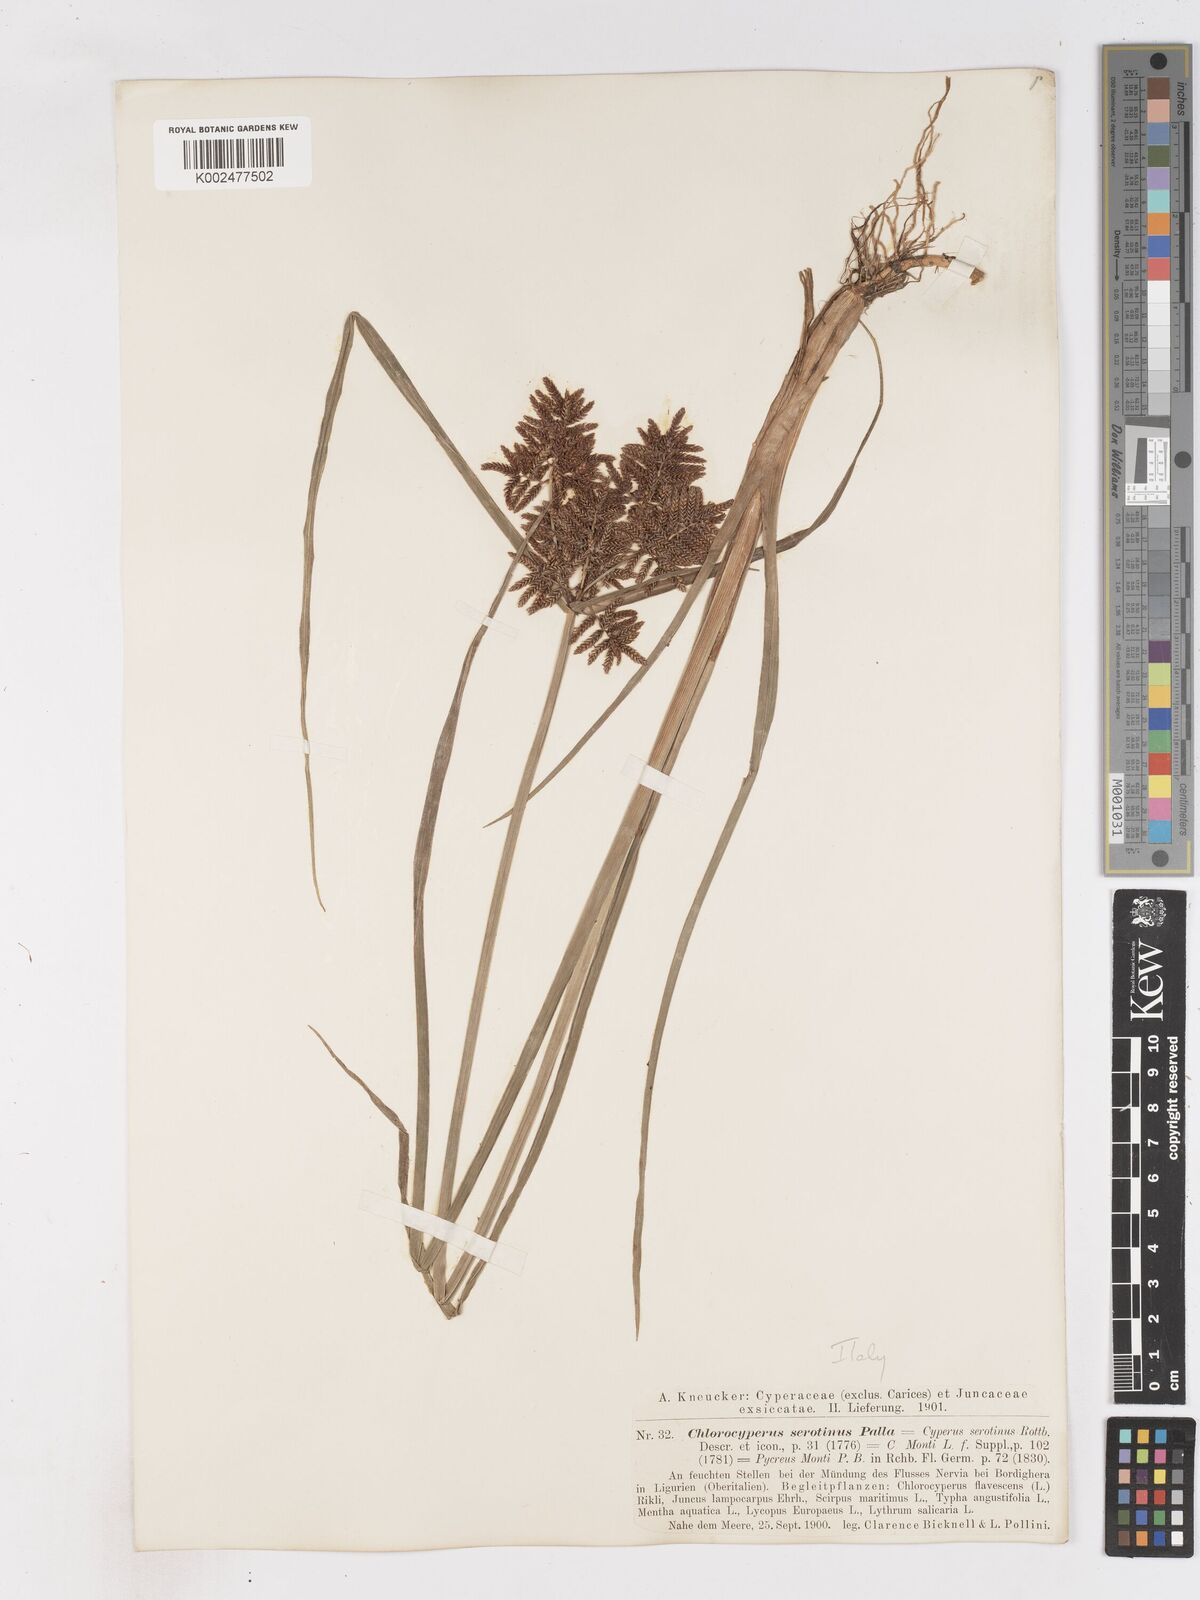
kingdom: Plantae
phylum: Tracheophyta
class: Liliopsida
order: Poales
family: Cyperaceae
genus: Cyperus
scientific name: Cyperus serotinus
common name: Tidalmarsh flatsedge
